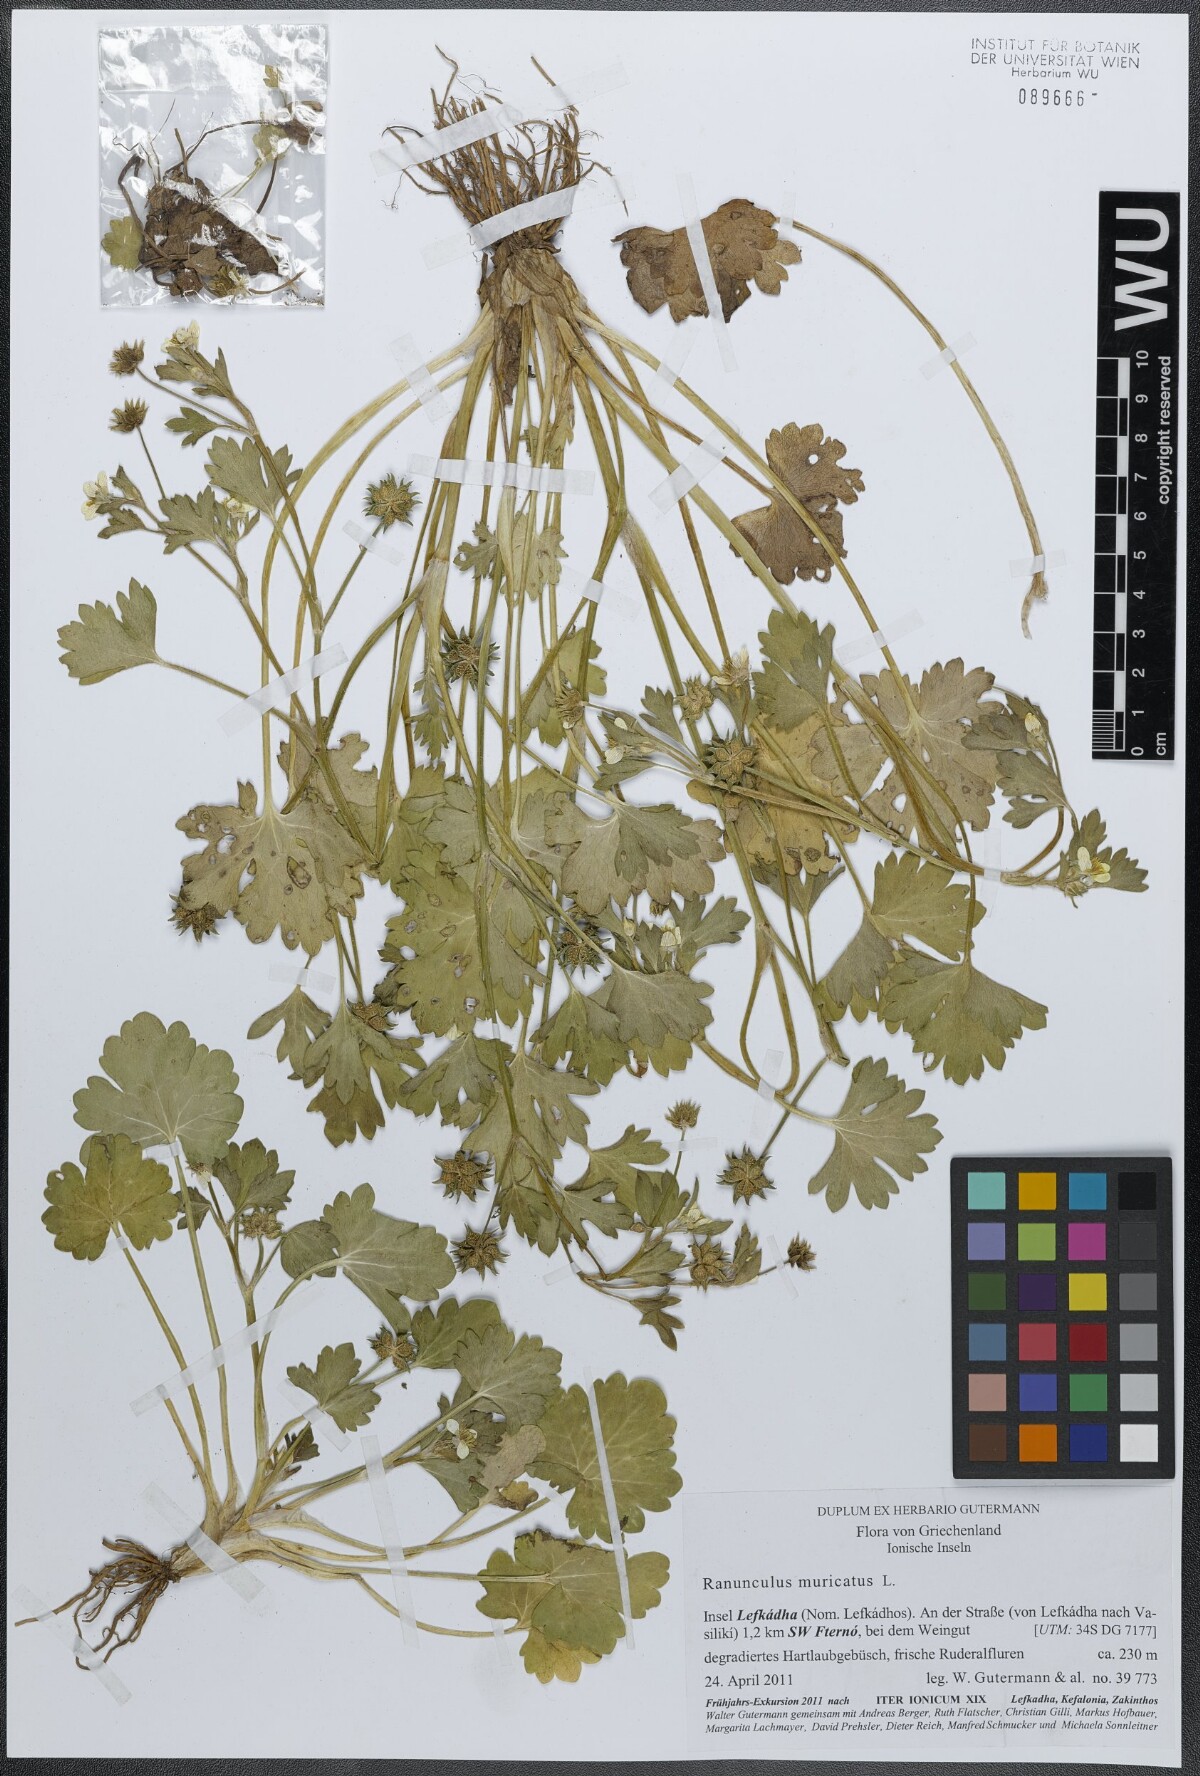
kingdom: Plantae
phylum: Tracheophyta
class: Magnoliopsida
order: Ranunculales
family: Ranunculaceae
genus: Ranunculus
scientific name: Ranunculus muricatus
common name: Rough-fruited buttercup
